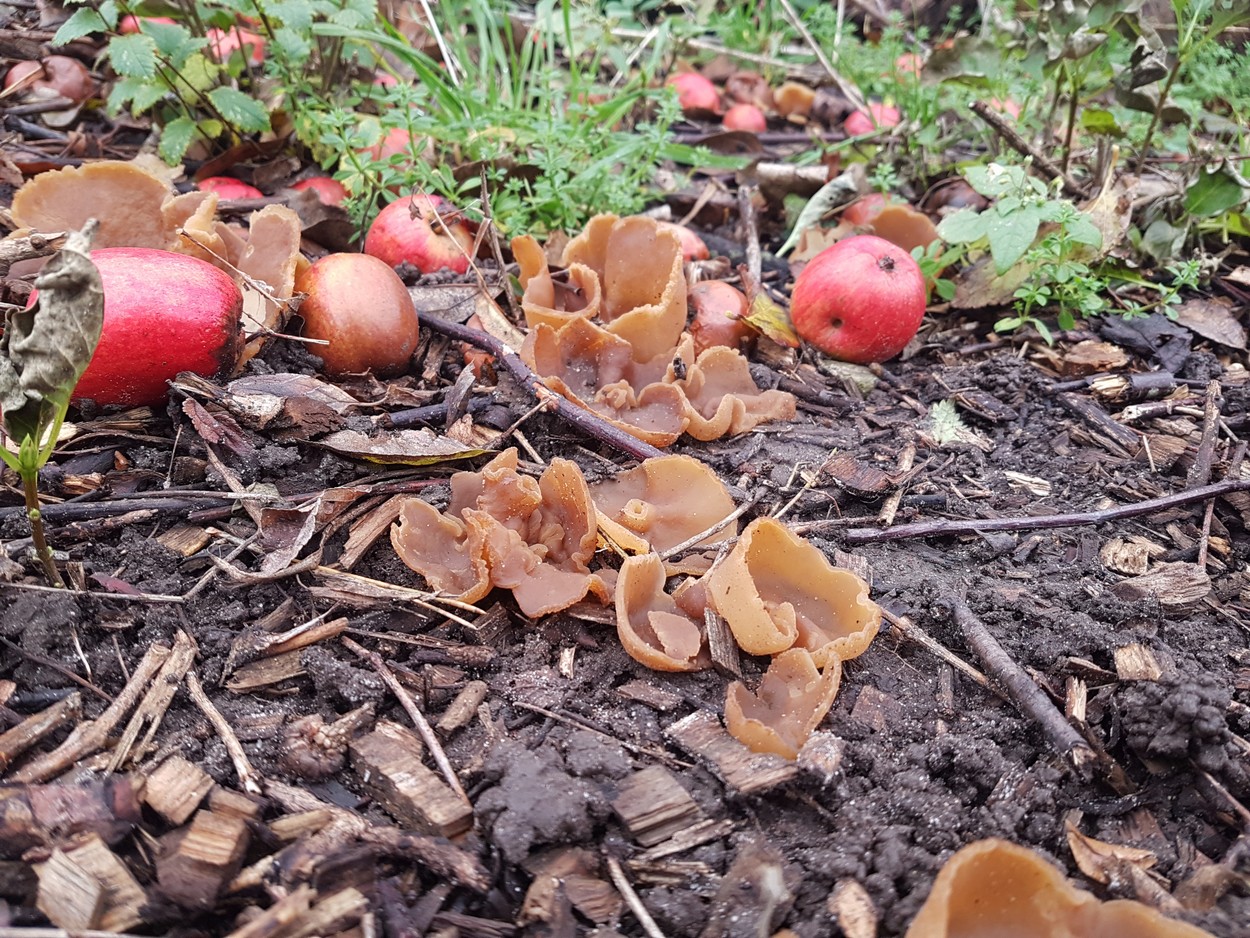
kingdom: Fungi
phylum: Ascomycota
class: Pezizomycetes
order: Pezizales
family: Pezizaceae
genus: Peziza
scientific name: Peziza
